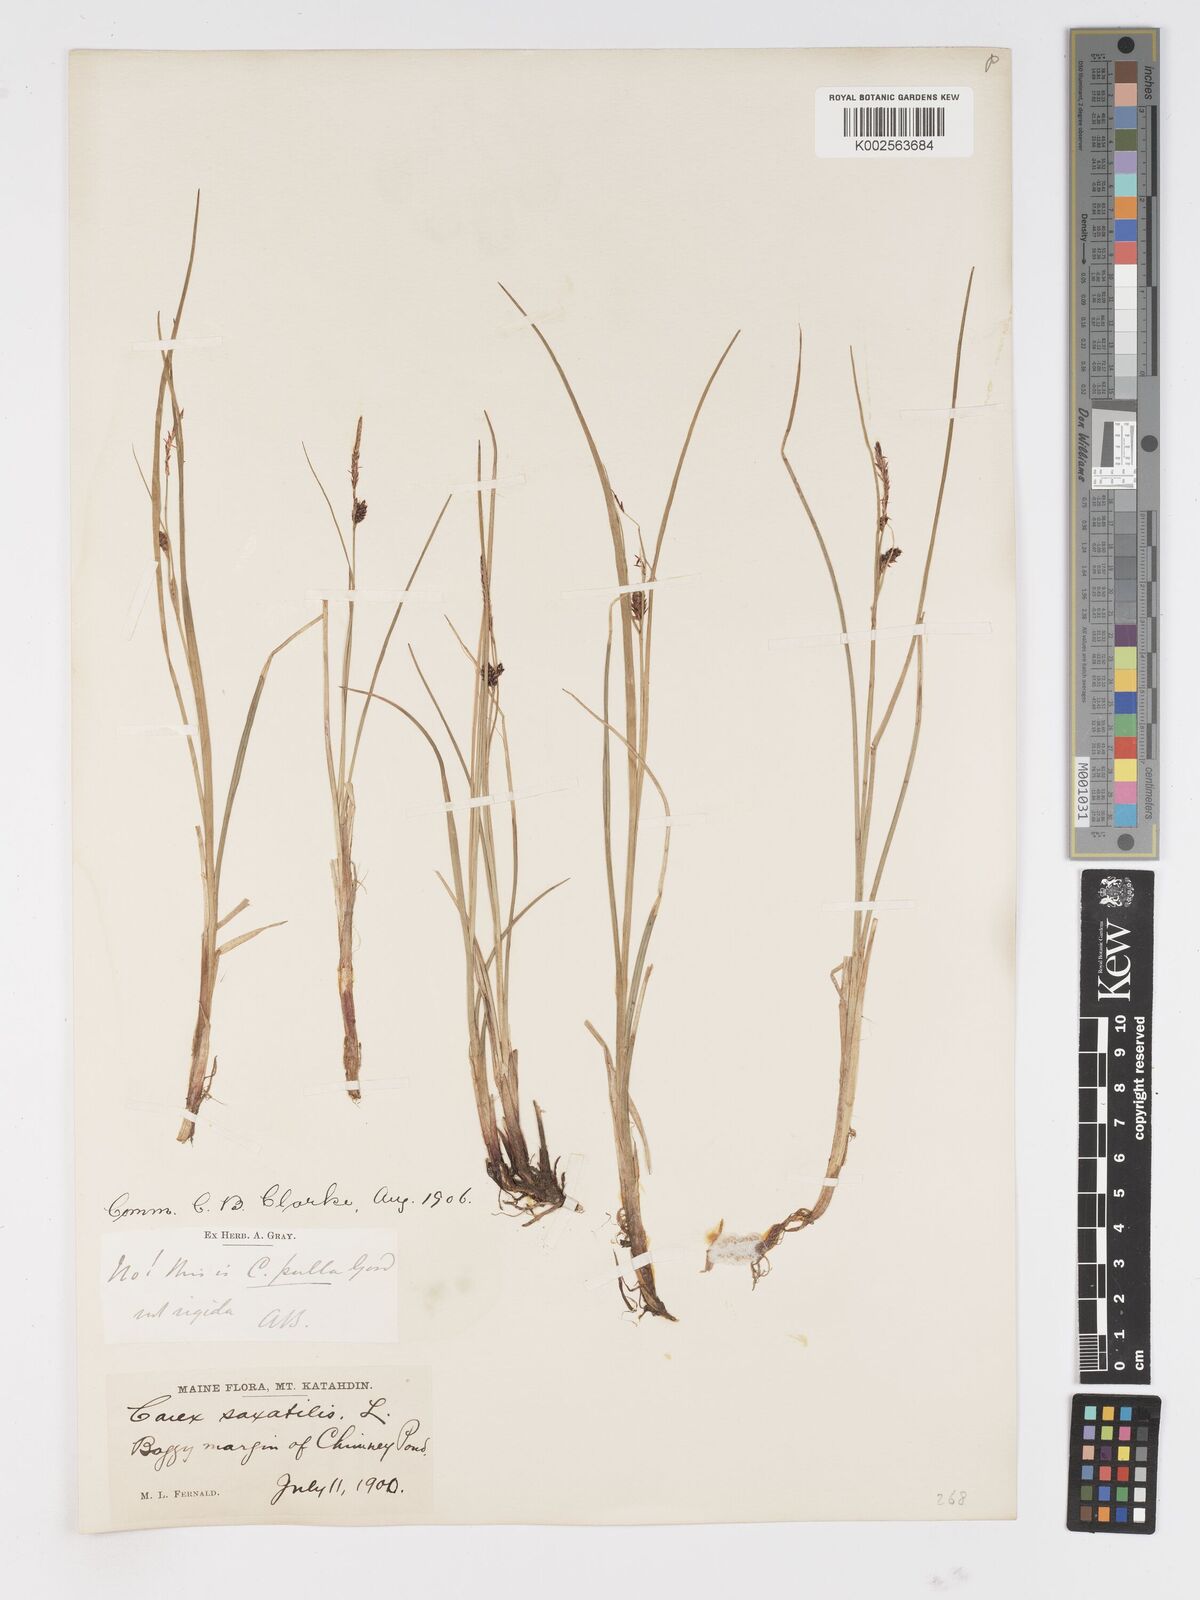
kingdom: Plantae
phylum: Tracheophyta
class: Liliopsida
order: Poales
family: Cyperaceae
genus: Carex
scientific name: Carex saxatilis
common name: Russet sedge
